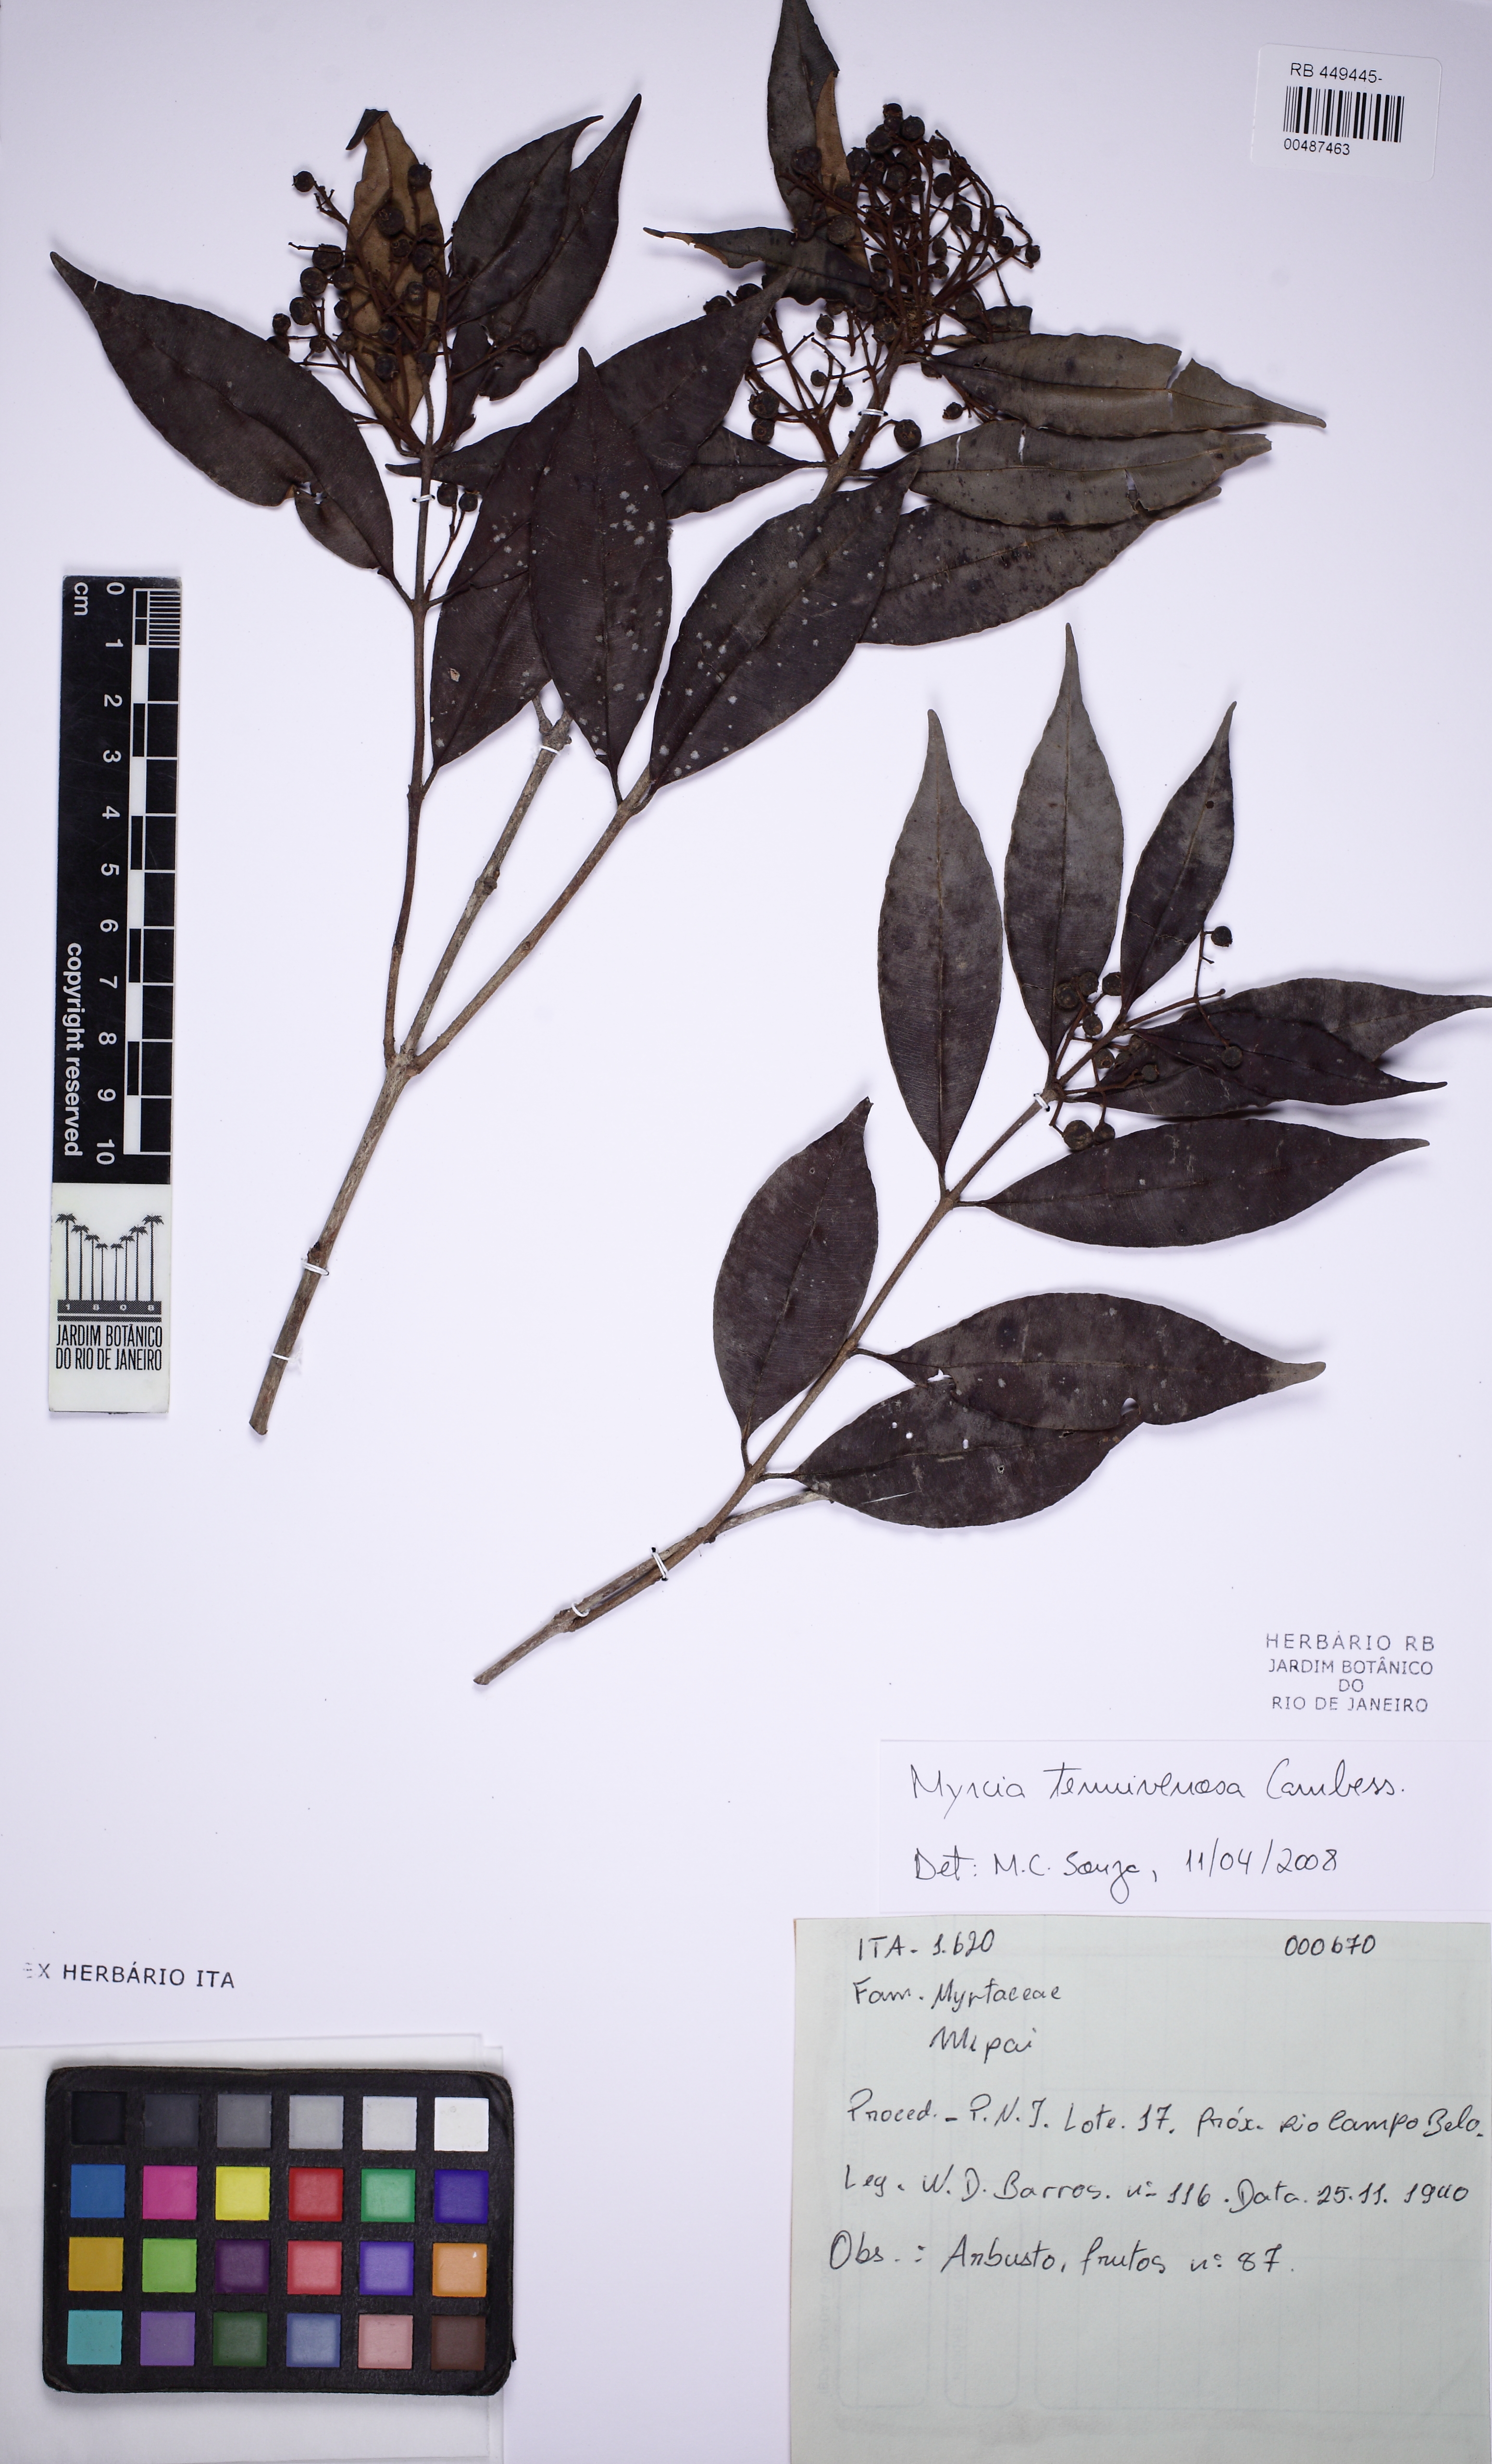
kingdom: Plantae
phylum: Tracheophyta
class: Magnoliopsida
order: Myrtales
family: Myrtaceae
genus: Myrcia
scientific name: Myrcia tenuivenosa
